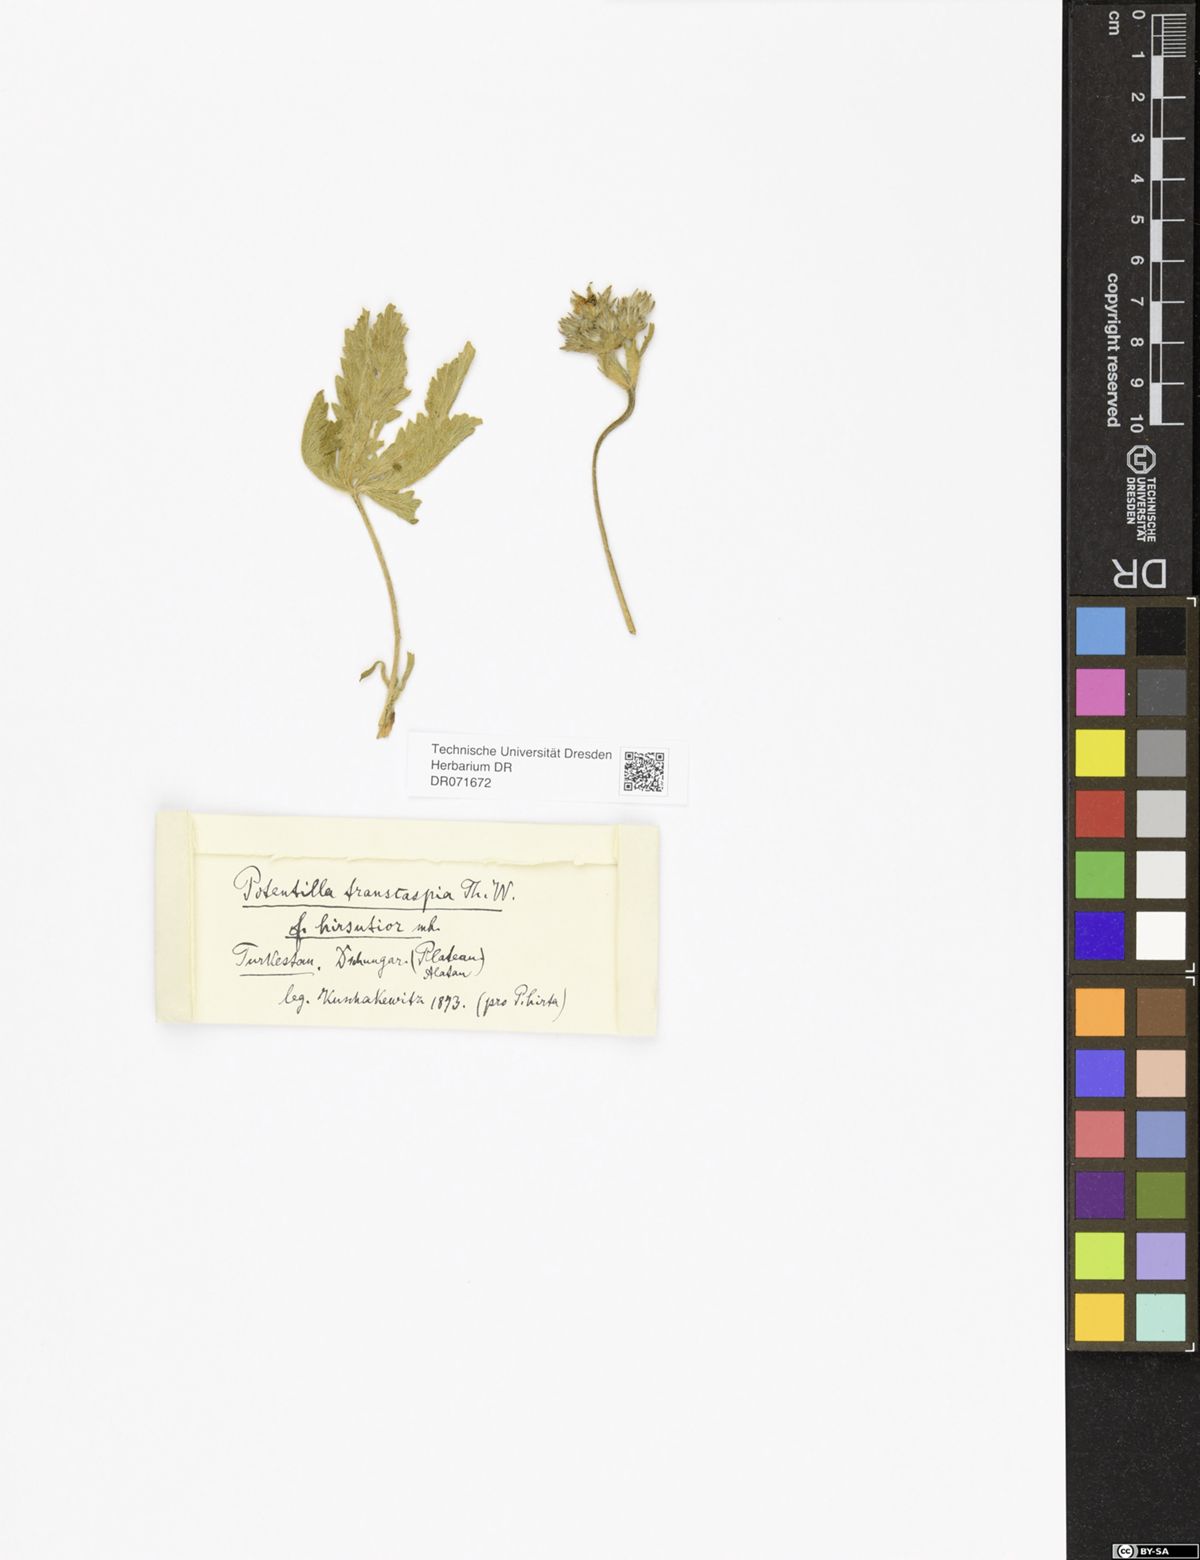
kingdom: Plantae
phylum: Tracheophyta
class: Magnoliopsida
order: Rosales
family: Rosaceae
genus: Potentilla
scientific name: Potentilla pedata
